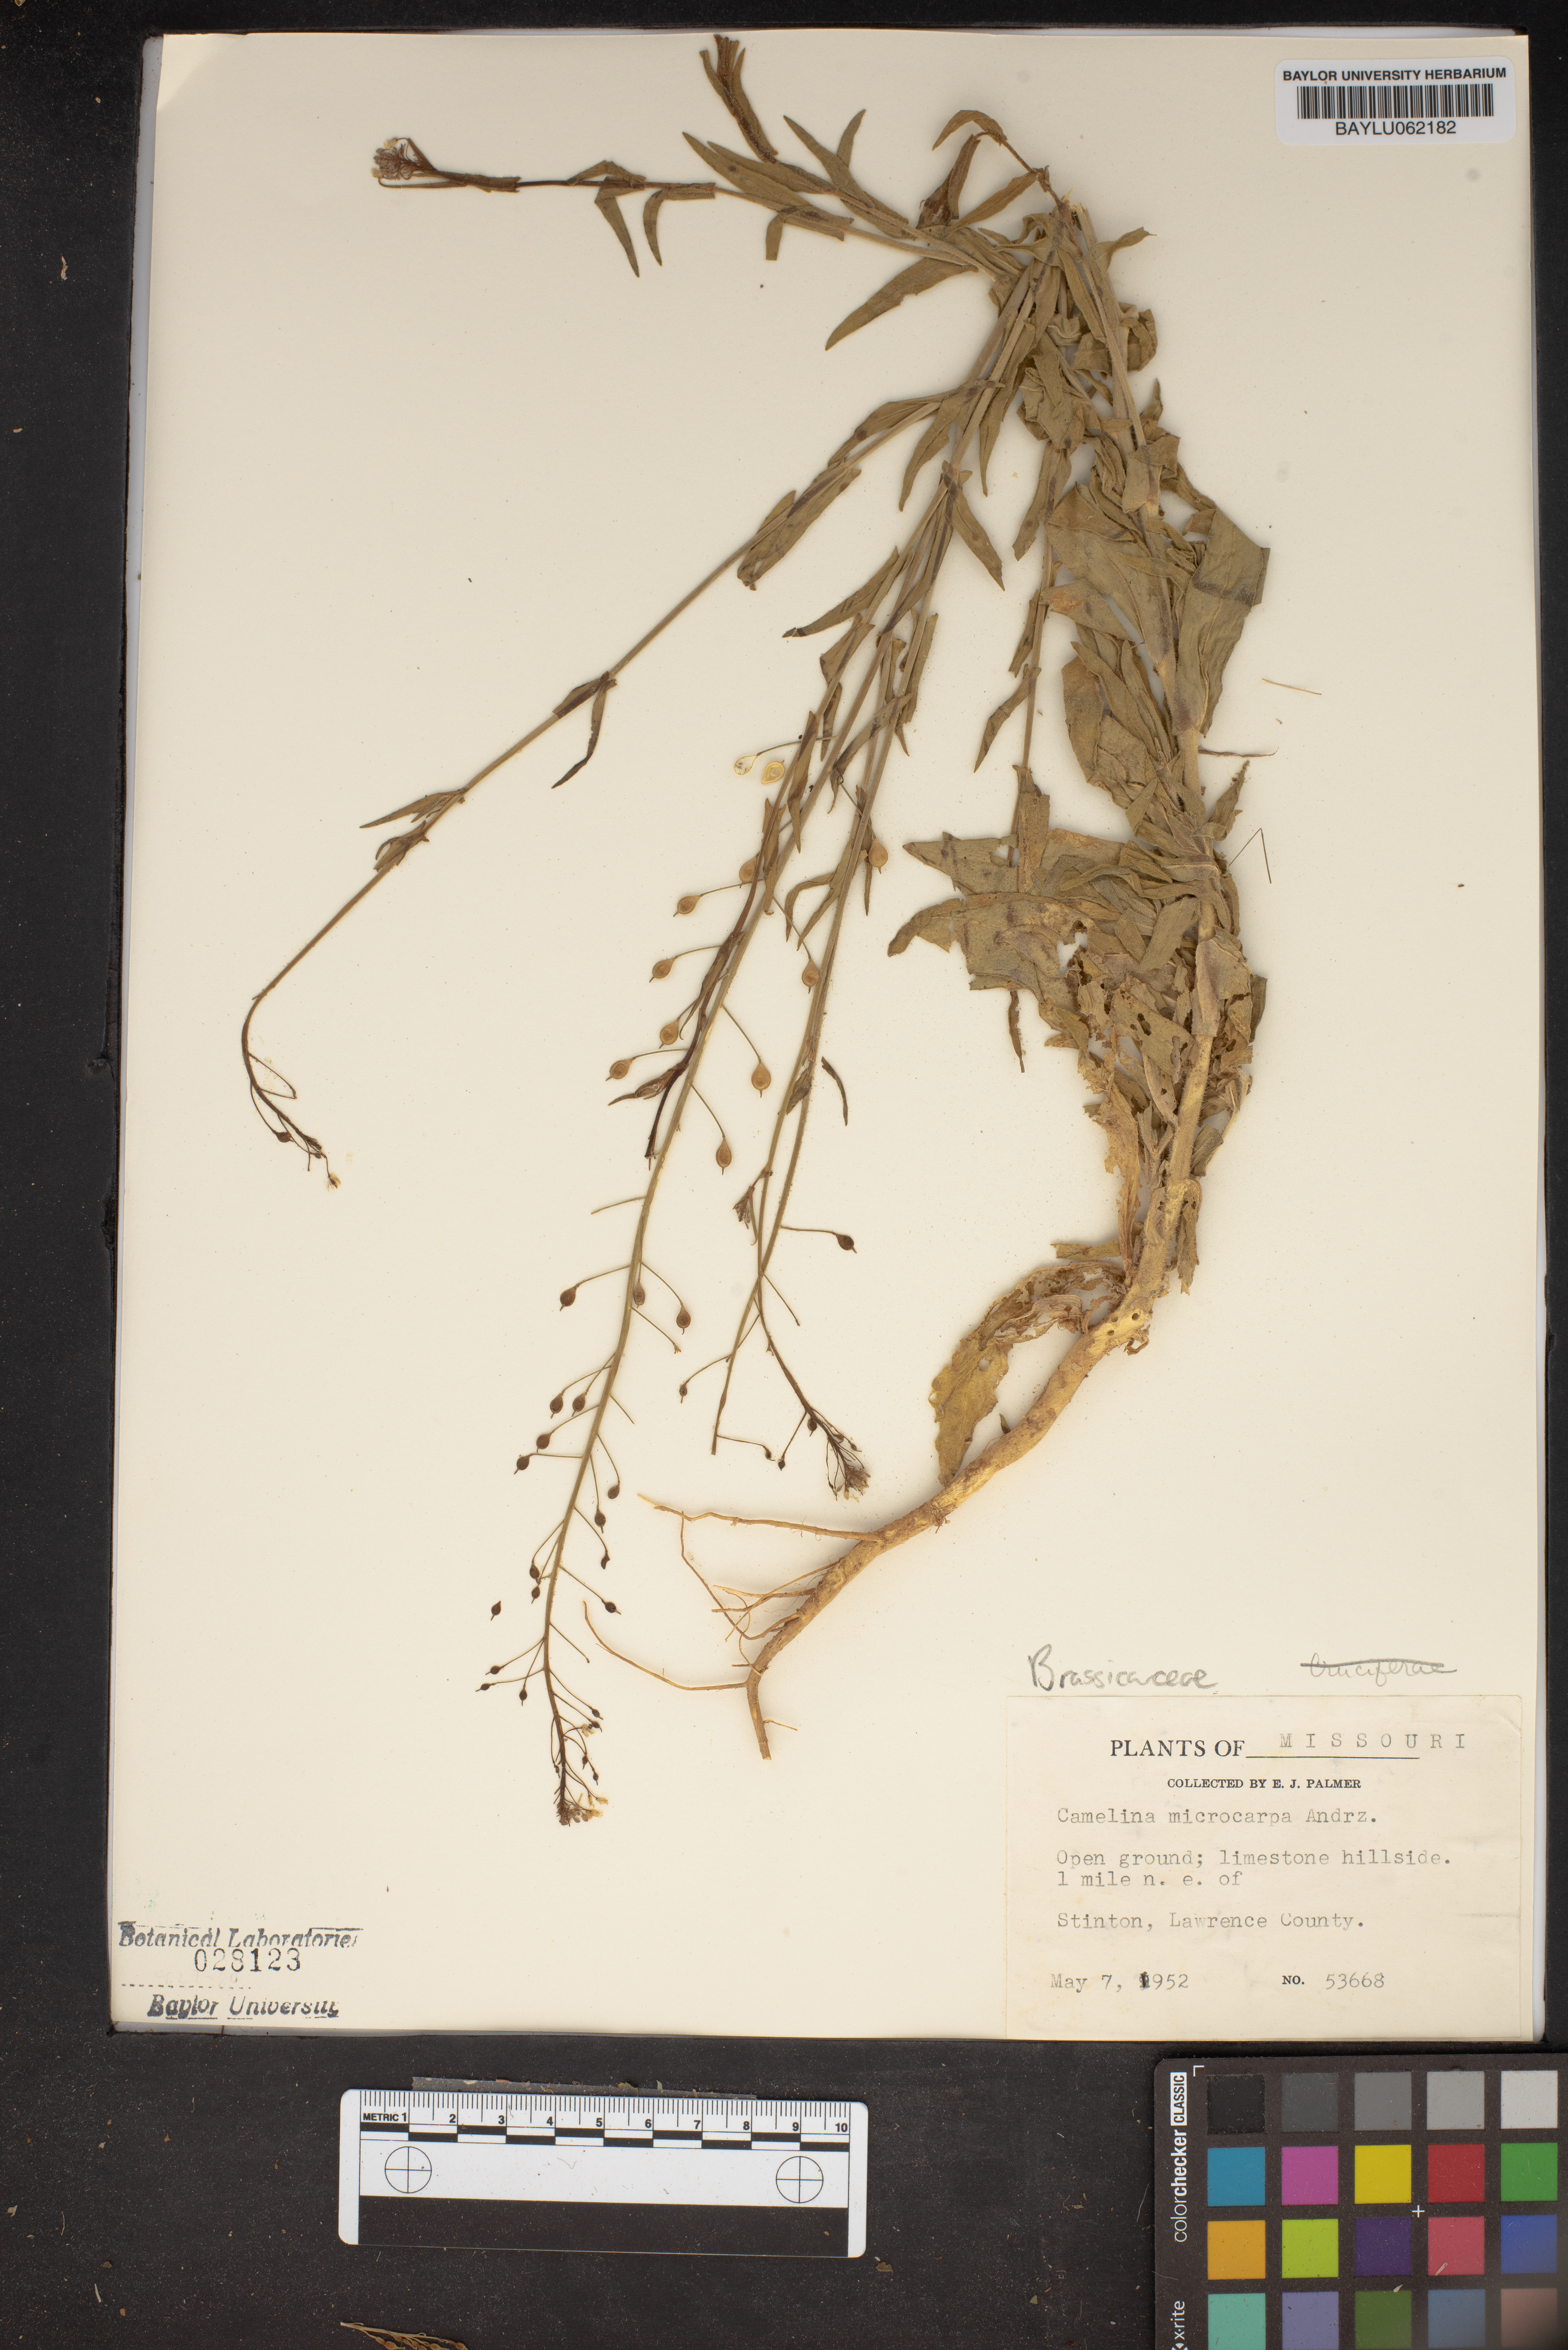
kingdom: Plantae
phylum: Tracheophyta
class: Magnoliopsida
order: Brassicales
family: Brassicaceae
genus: Camelina
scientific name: Camelina microcarpa
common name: Lesser gold-of-pleasure
